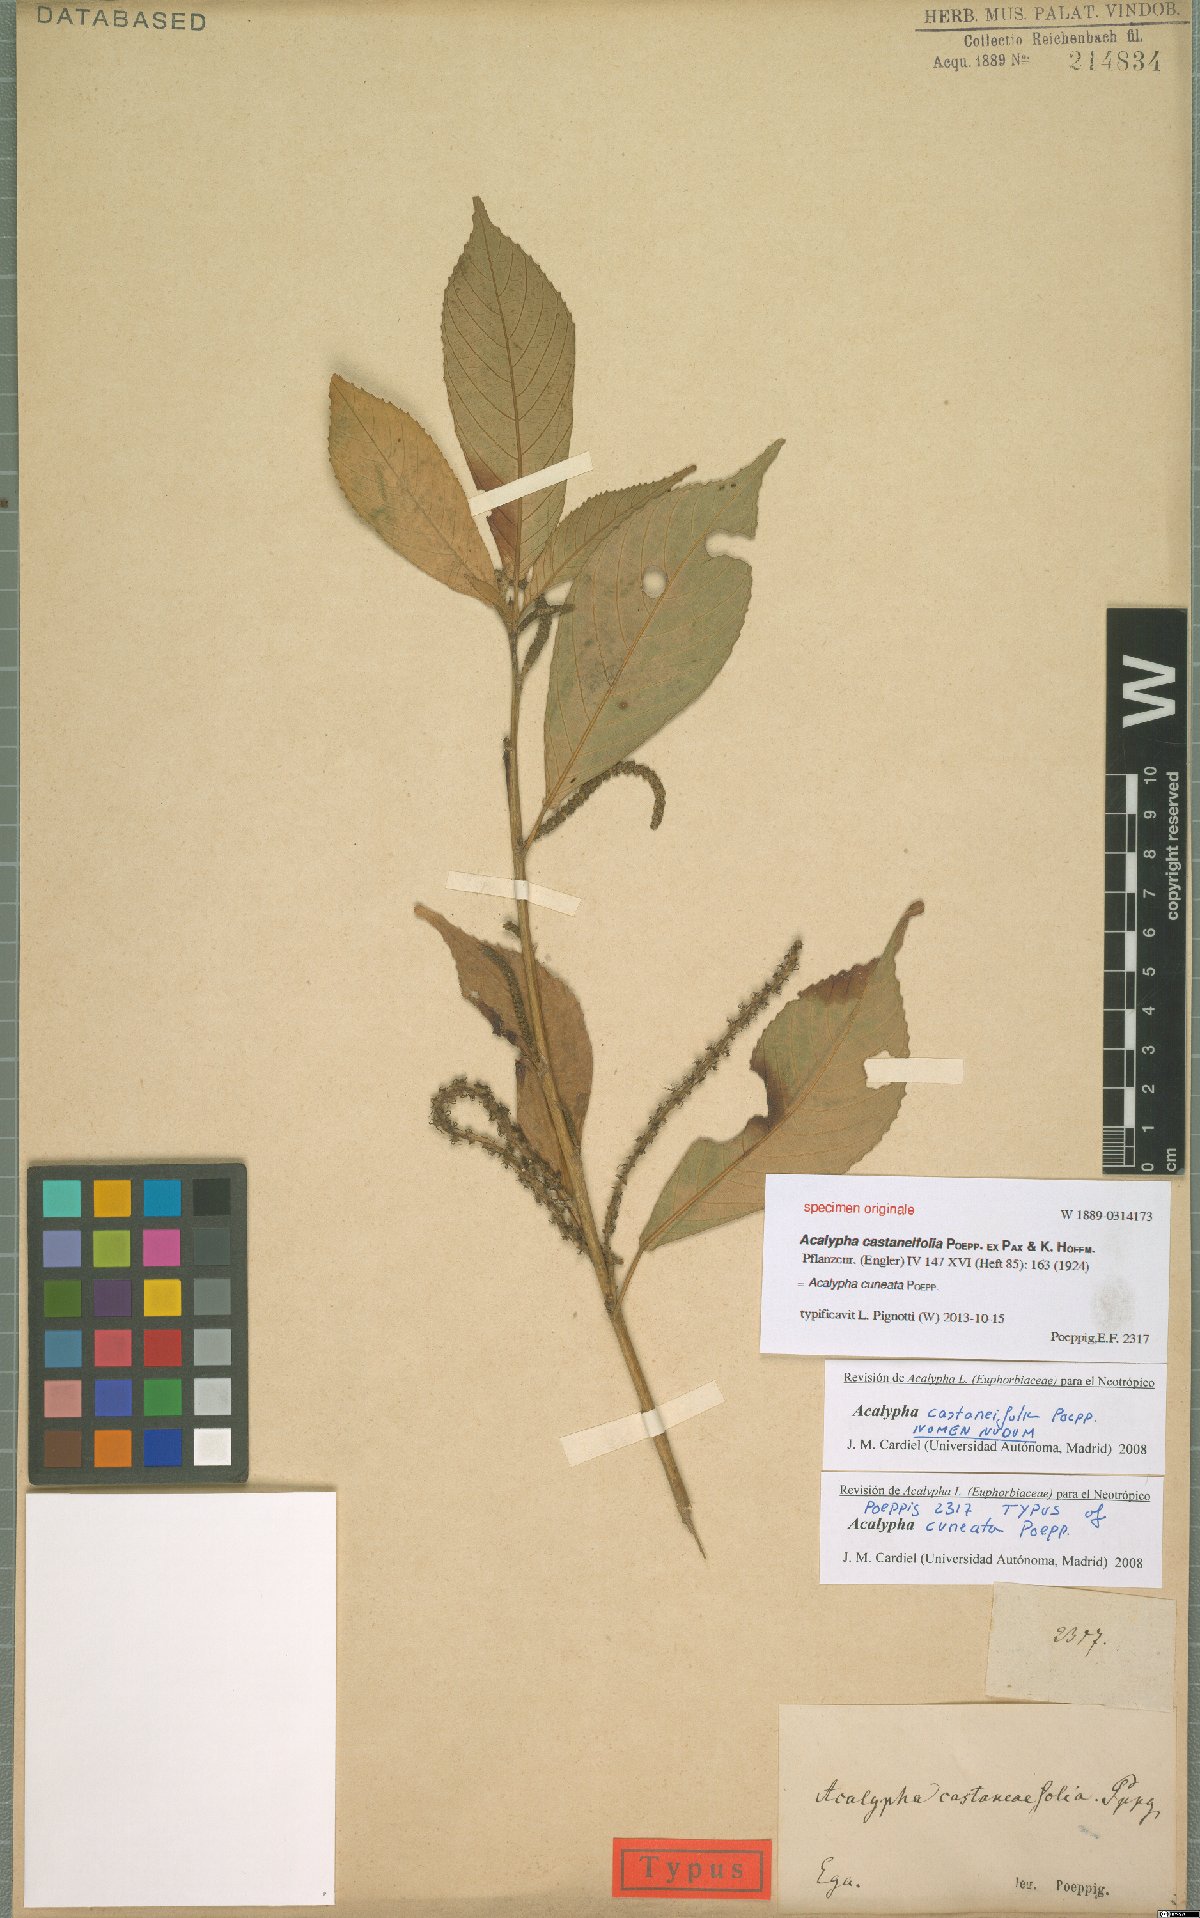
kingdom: Plantae
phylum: Tracheophyta
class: Magnoliopsida
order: Malpighiales
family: Euphorbiaceae
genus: Acalypha
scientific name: Acalypha cuneata
